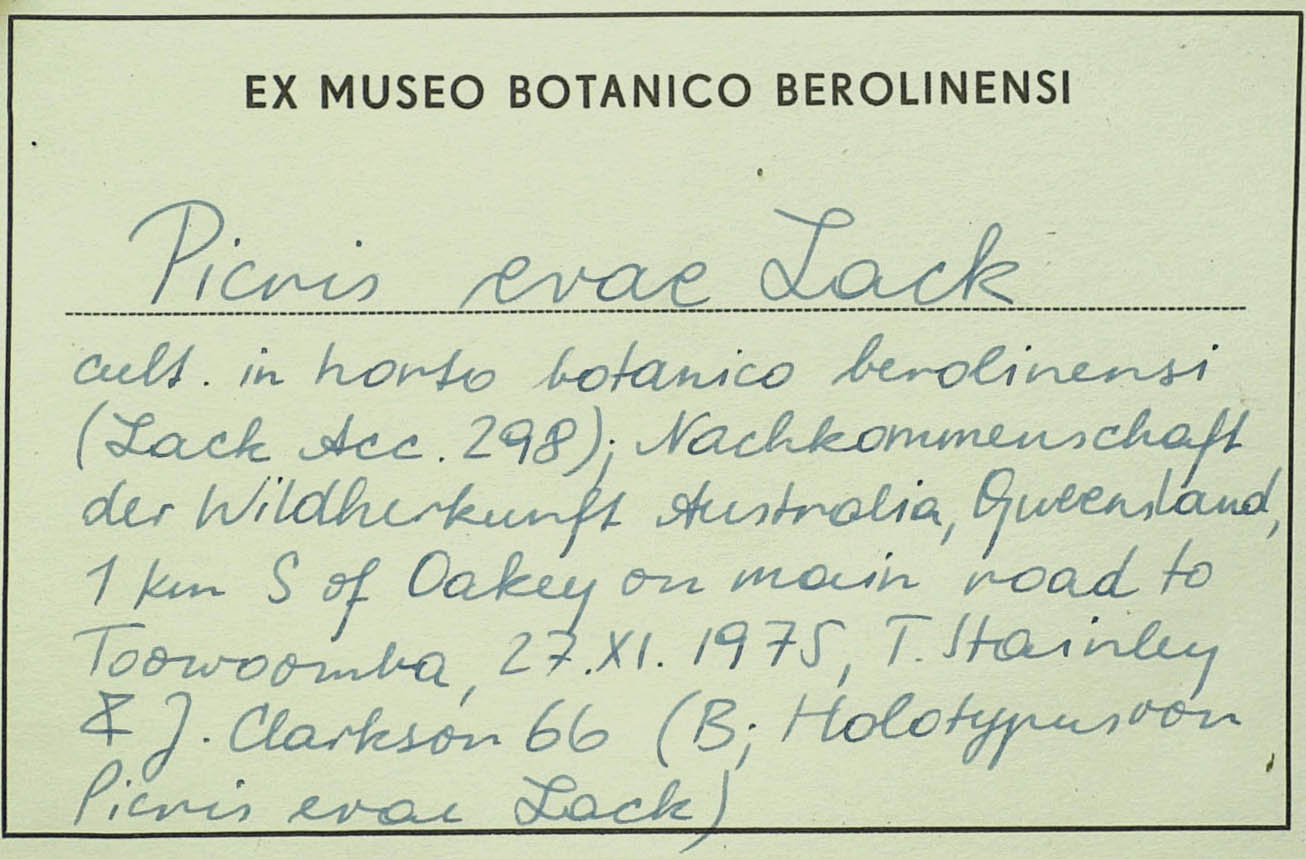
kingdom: Plantae
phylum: Tracheophyta
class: Magnoliopsida
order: Asterales
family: Asteraceae
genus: Picris
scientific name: Picris evae
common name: Hawkweed
